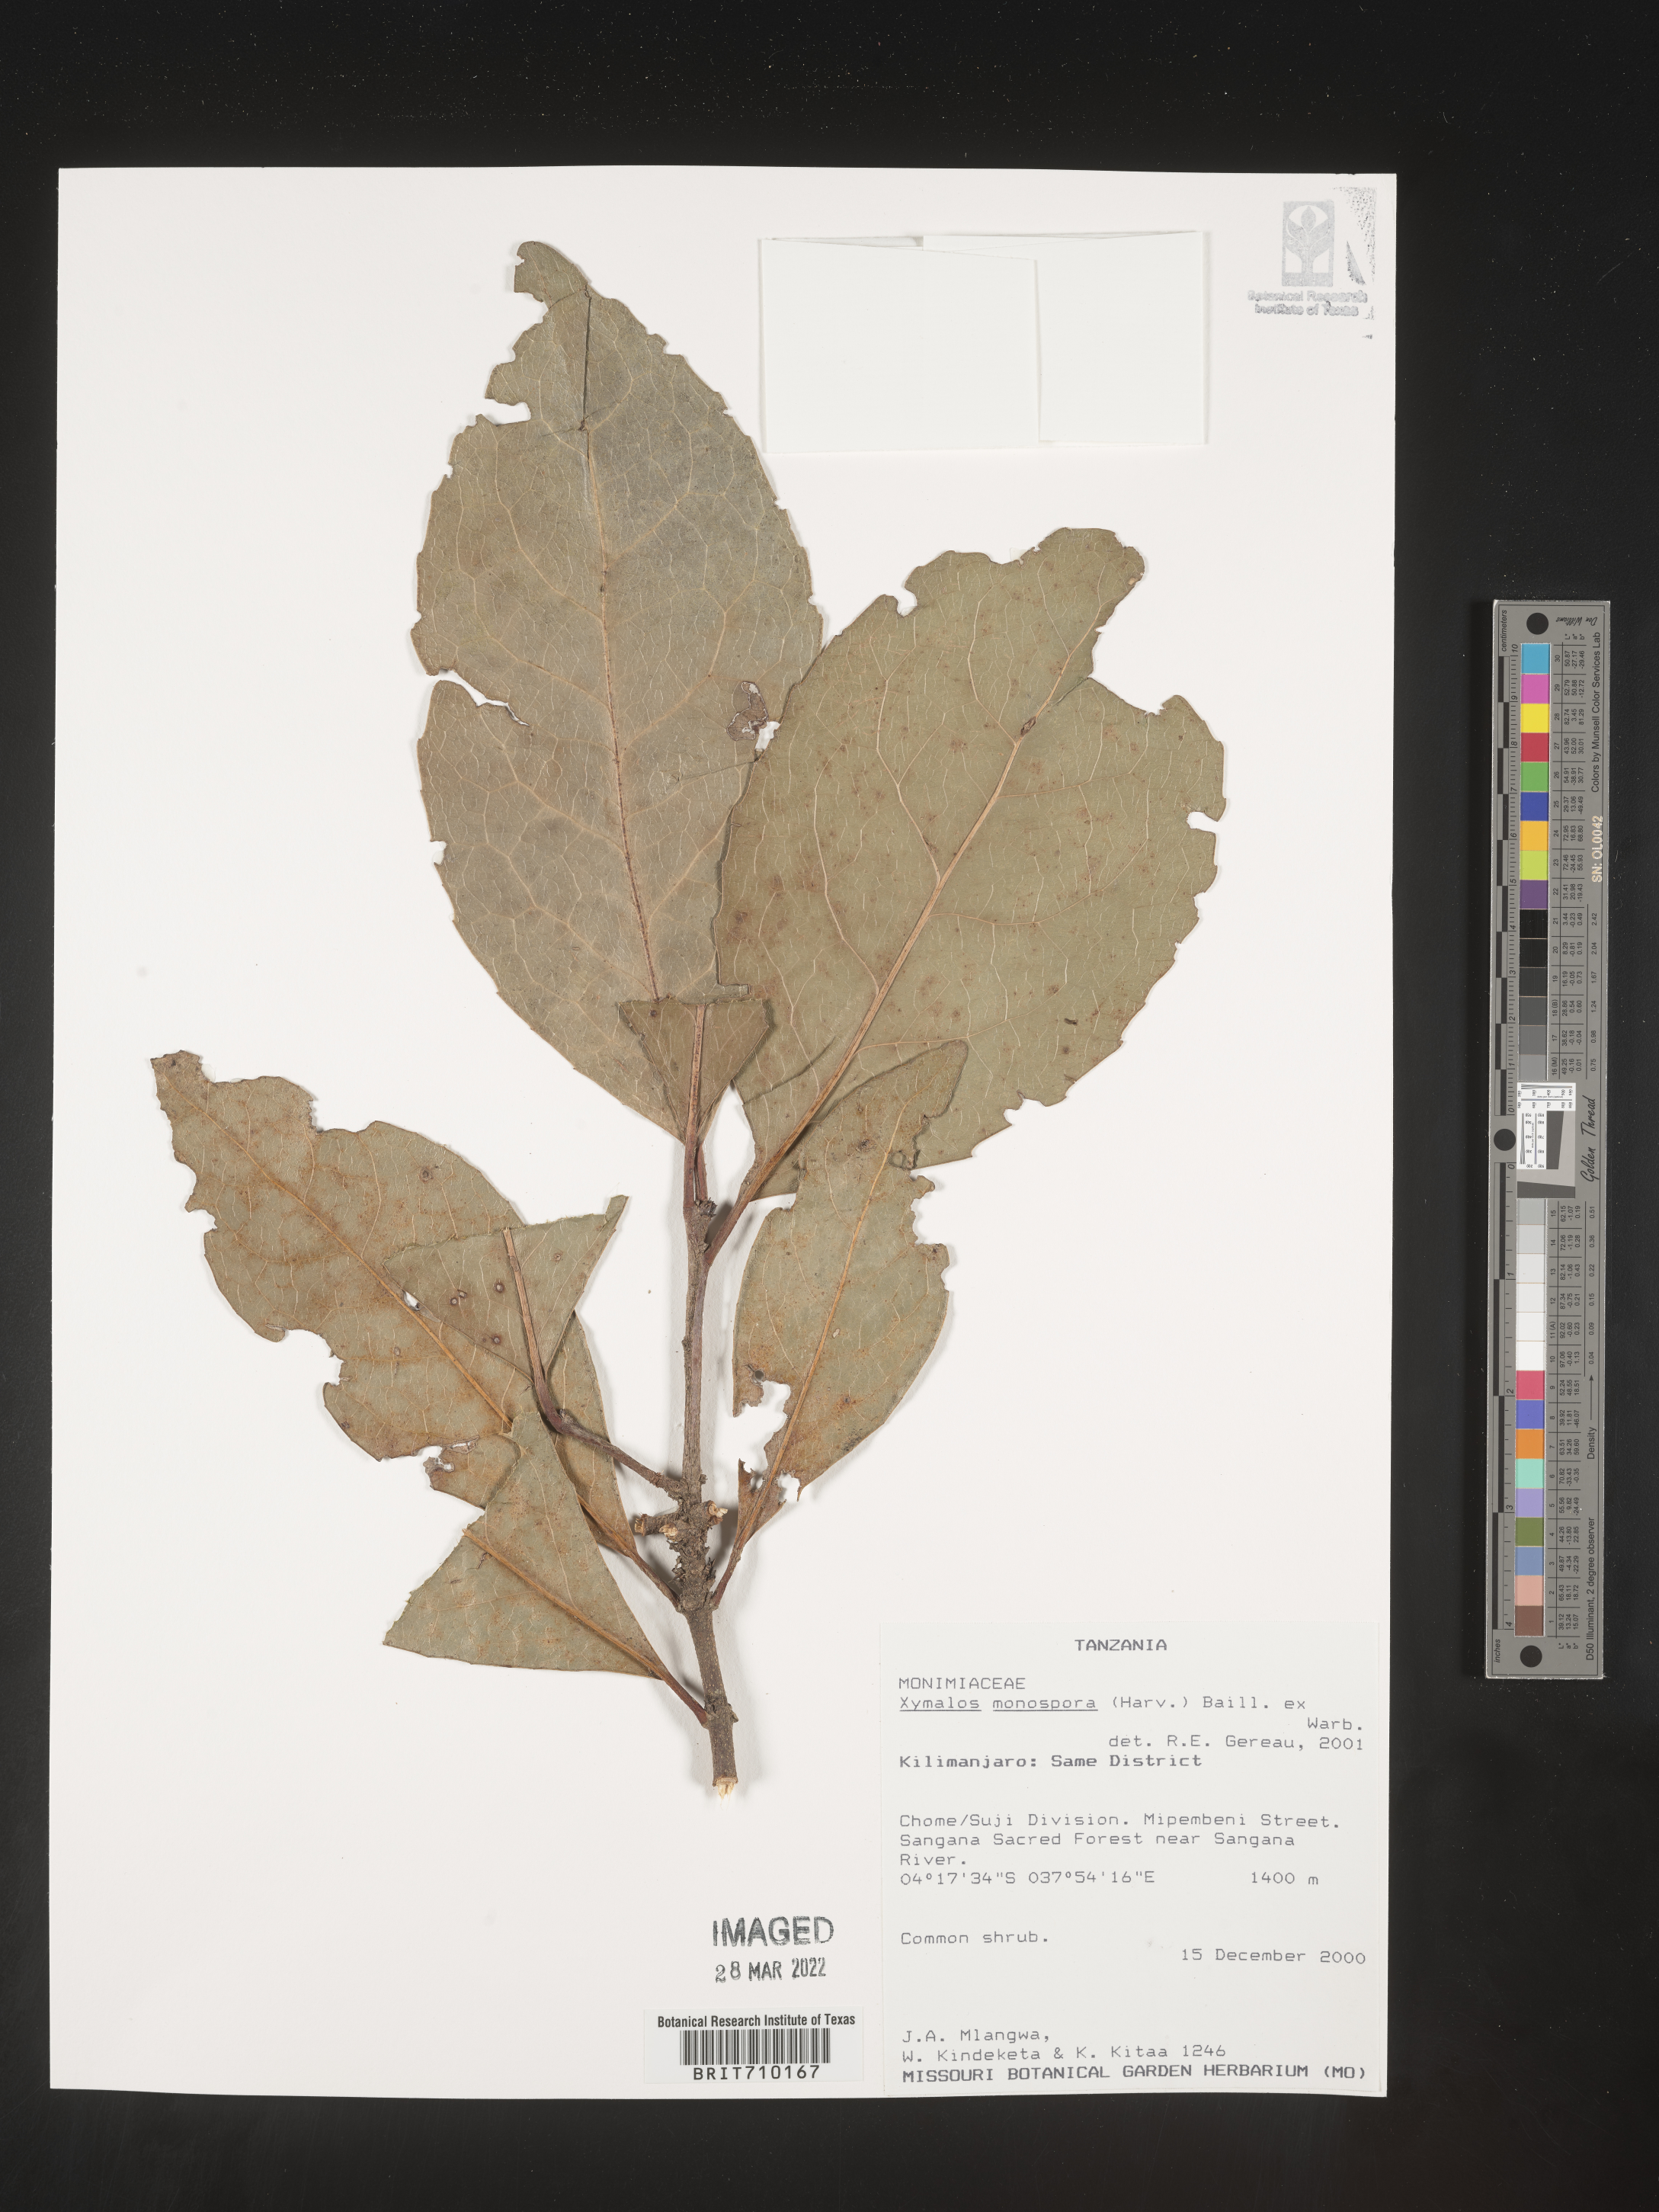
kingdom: Plantae
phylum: Tracheophyta
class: Magnoliopsida
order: Laurales
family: Monimiaceae
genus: Xymalos
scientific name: Xymalos
